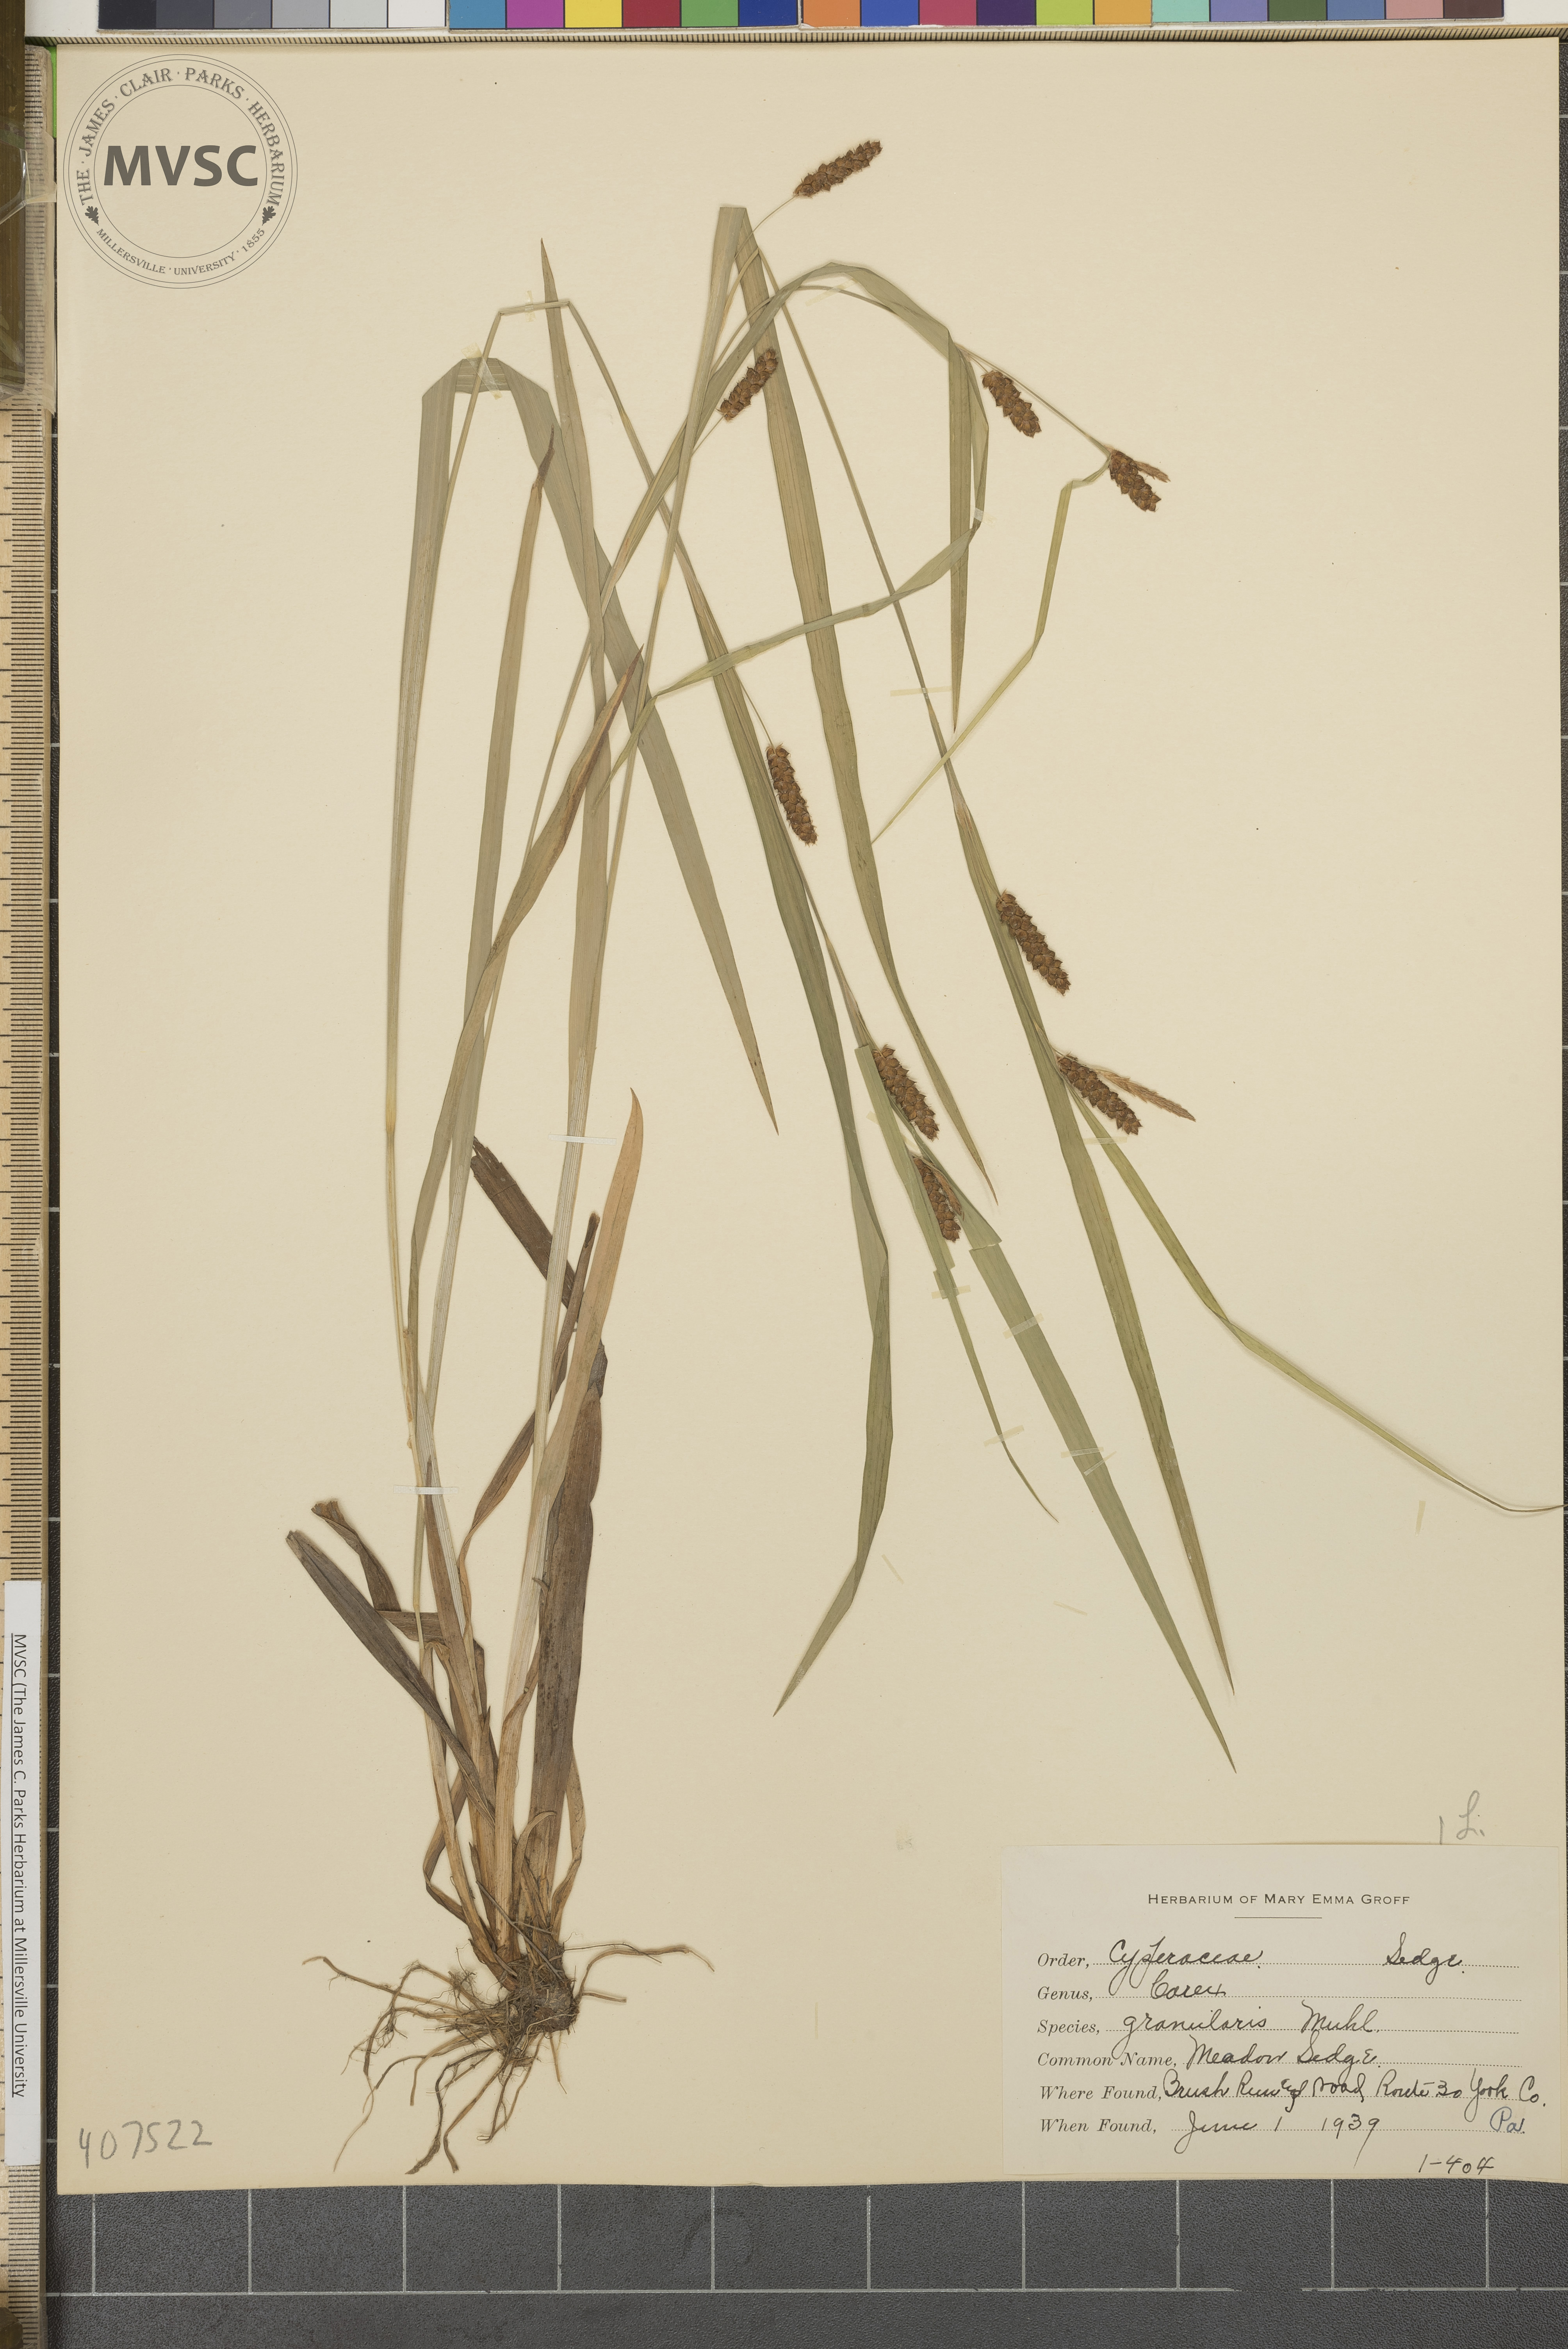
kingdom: Plantae
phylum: Tracheophyta
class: Liliopsida
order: Poales
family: Cyperaceae
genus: Carex
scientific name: Carex granularis
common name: Meadow Sedge
